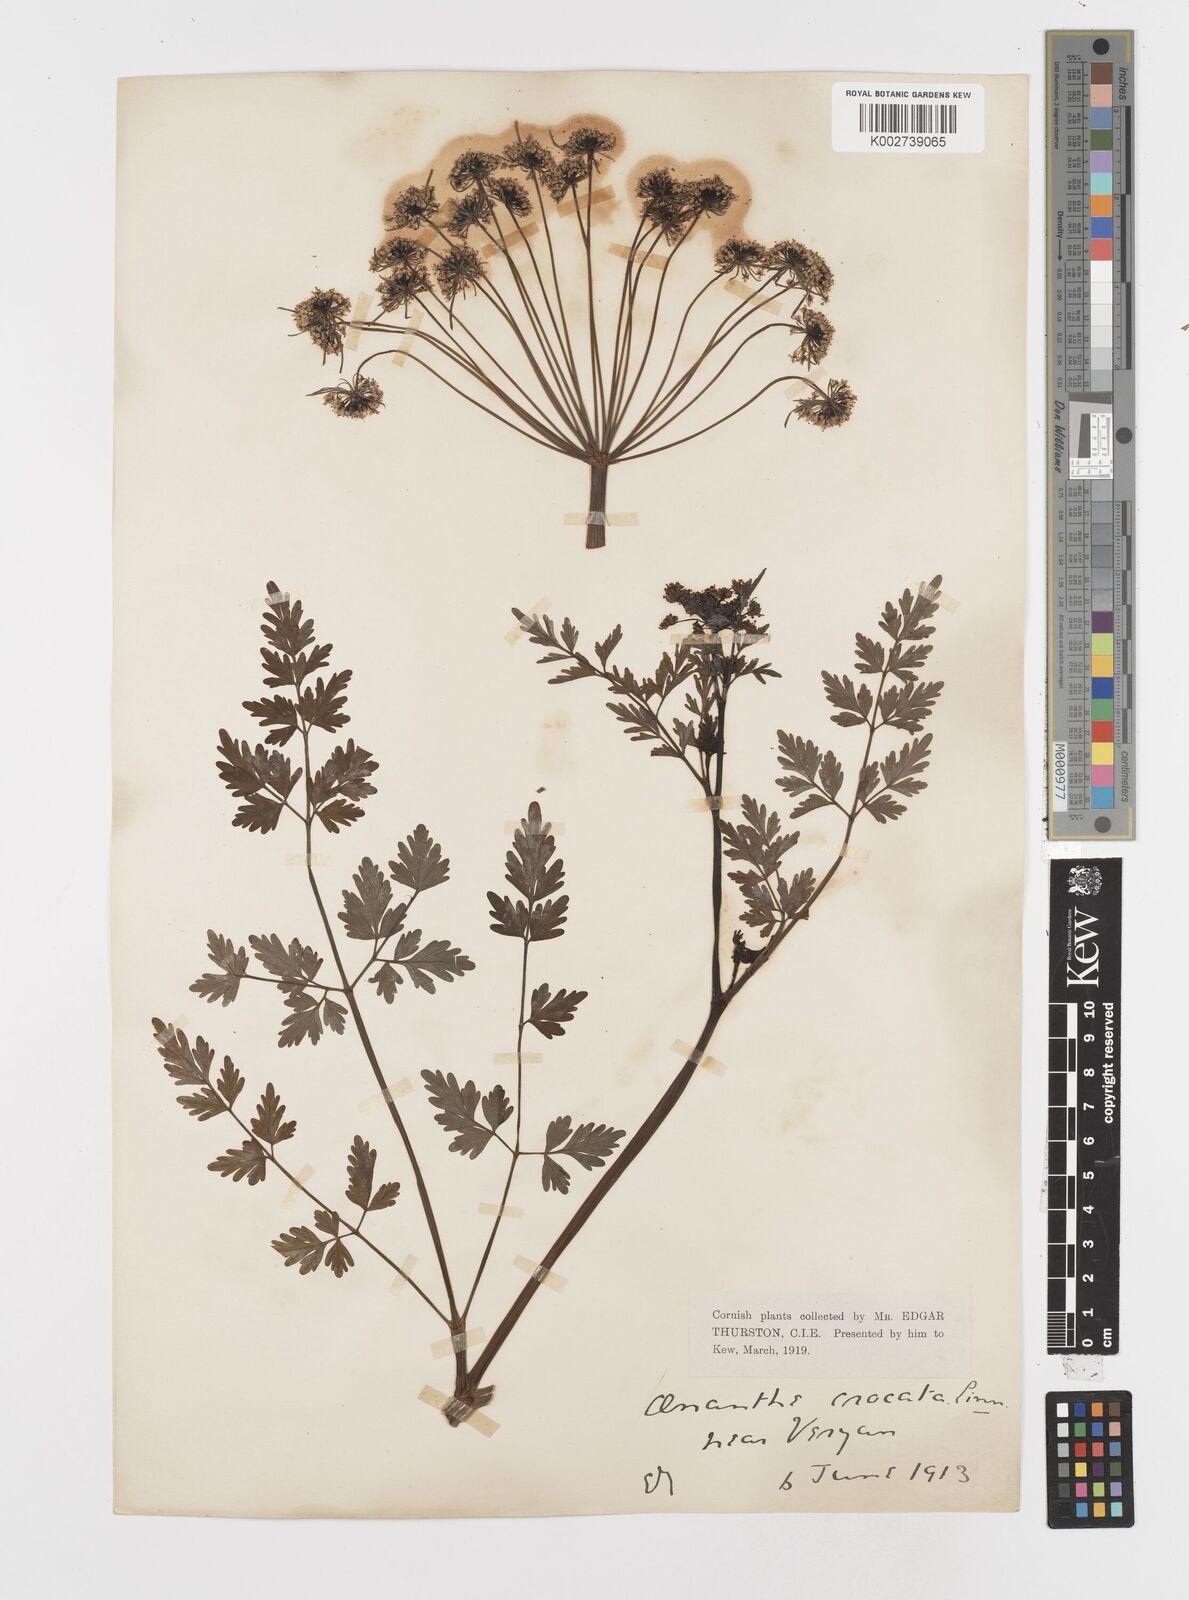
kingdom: Plantae
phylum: Tracheophyta
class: Magnoliopsida
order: Apiales
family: Apiaceae
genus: Oenanthe
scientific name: Oenanthe crocata
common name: Hemlock water-dropwort
